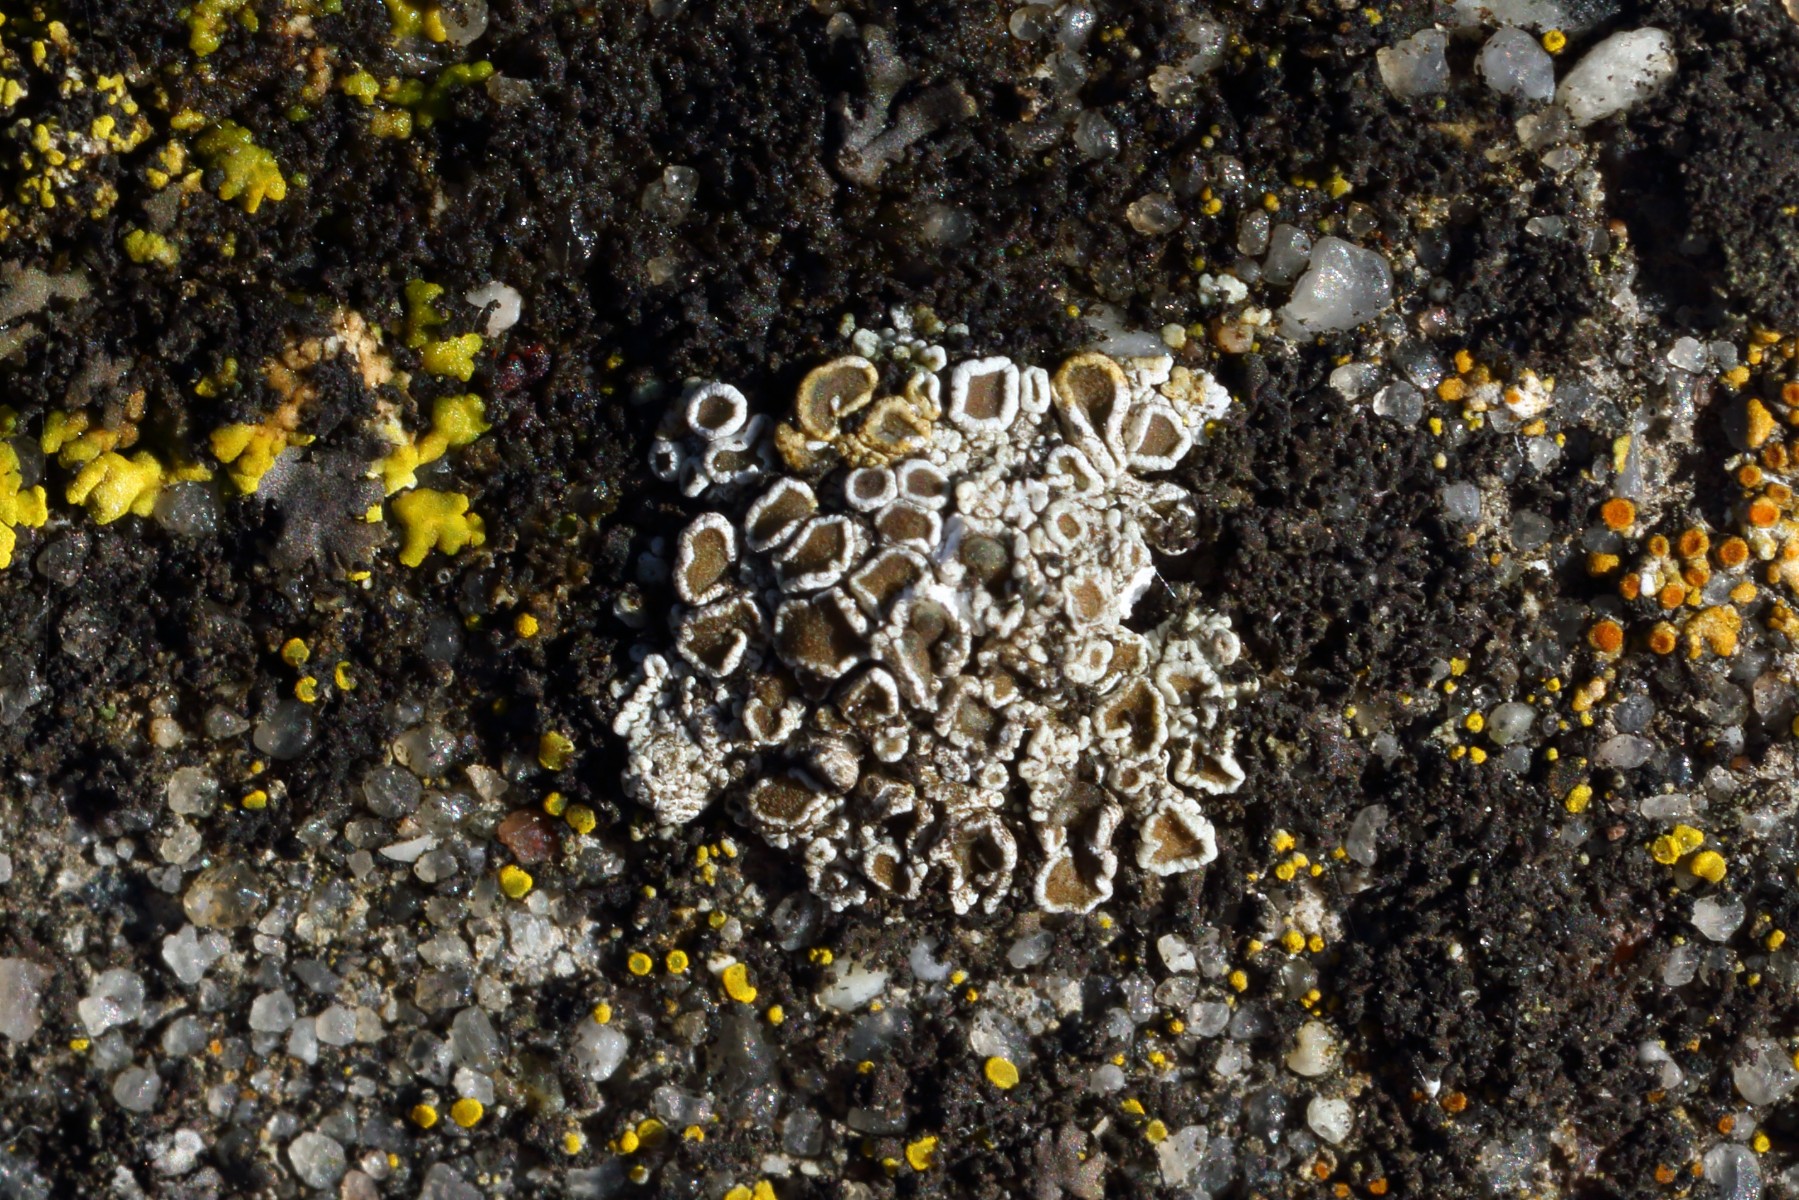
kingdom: Fungi
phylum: Ascomycota
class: Lecanoromycetes
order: Lecanorales
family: Lecanoraceae
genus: Polyozosia
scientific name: Polyozosia albescens
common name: cement-kantskivelav
